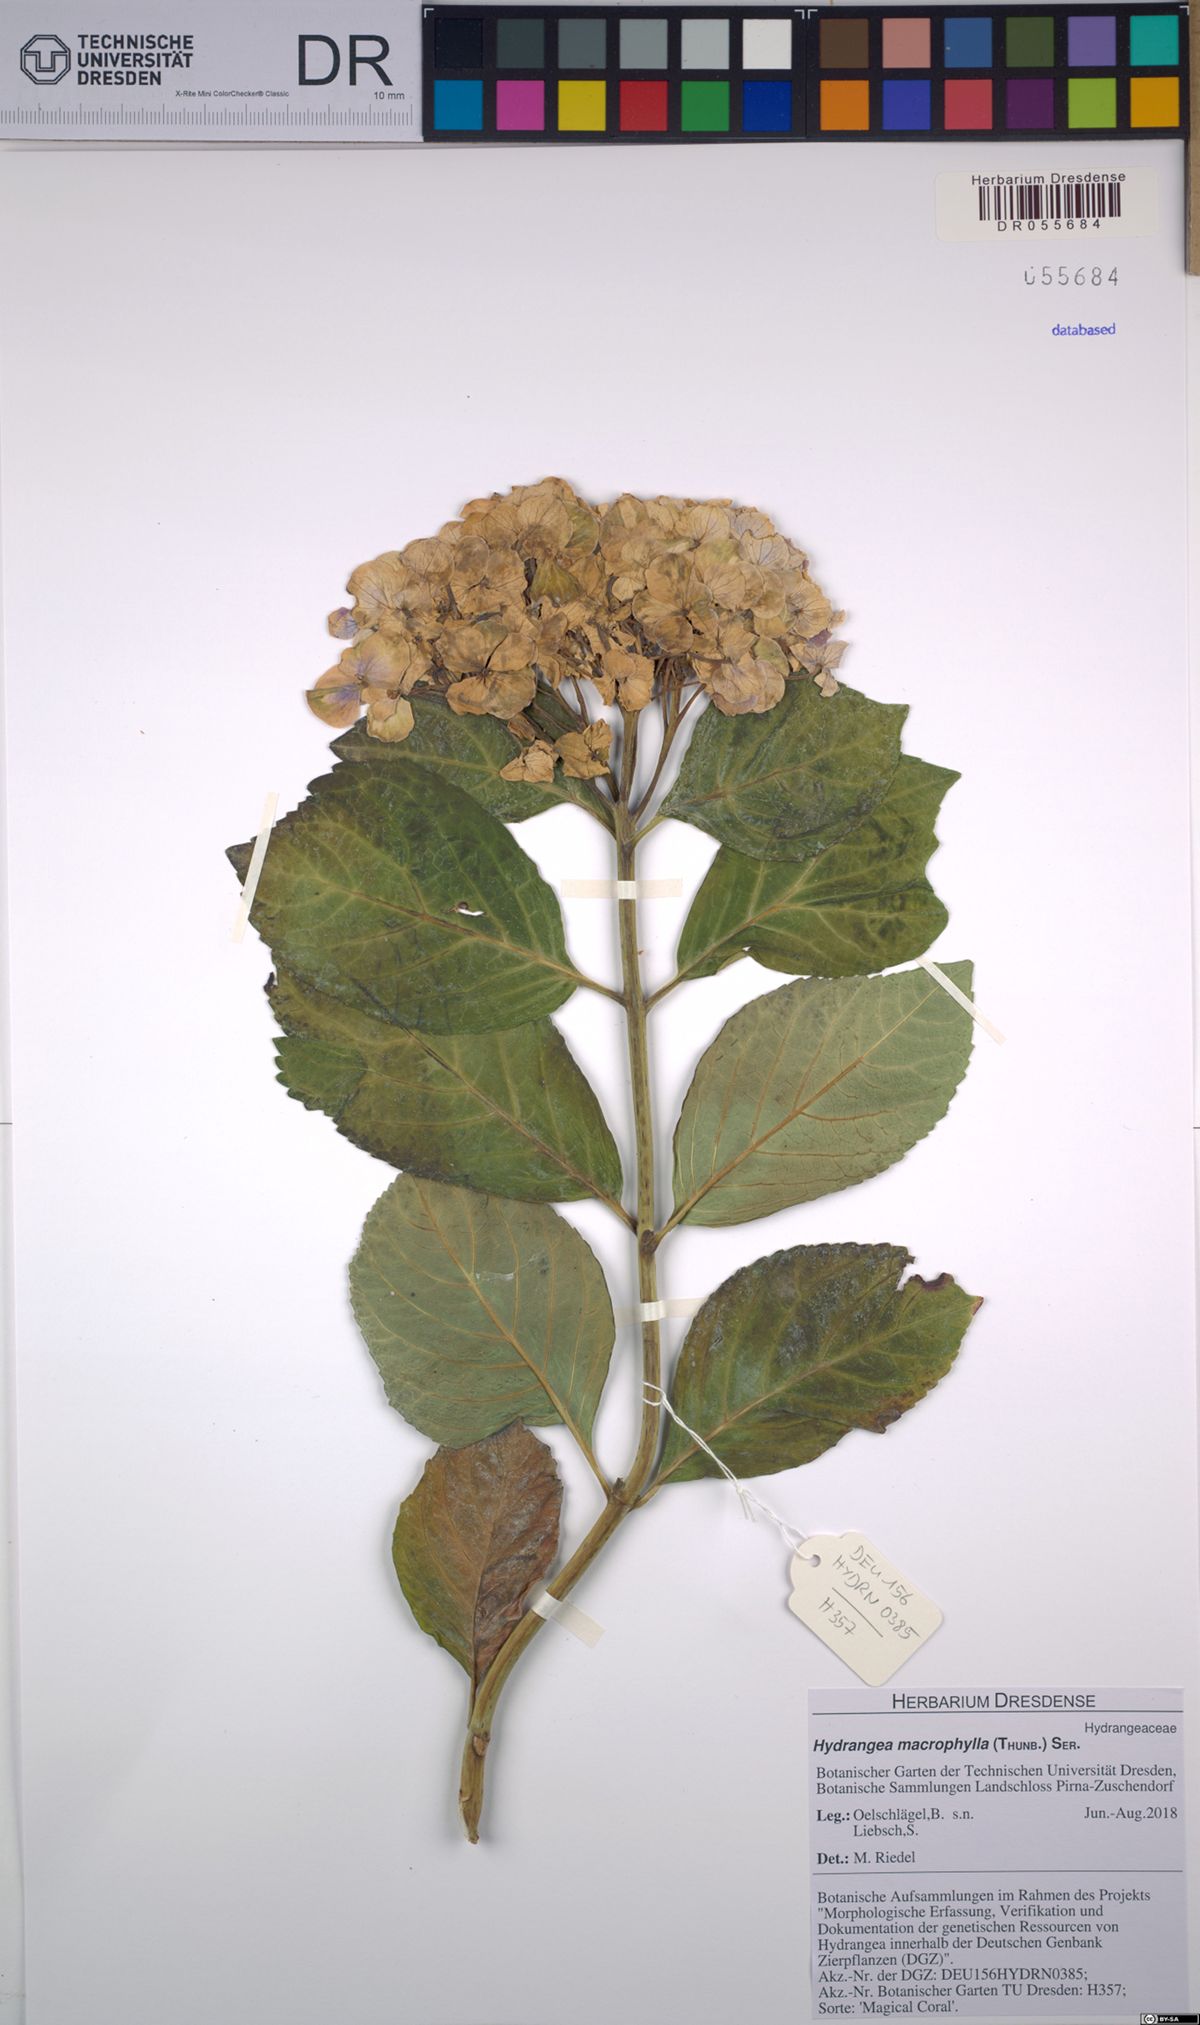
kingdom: Plantae
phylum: Tracheophyta
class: Magnoliopsida
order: Cornales
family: Hydrangeaceae
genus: Hydrangea
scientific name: Hydrangea macrophylla
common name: Hydrangea
